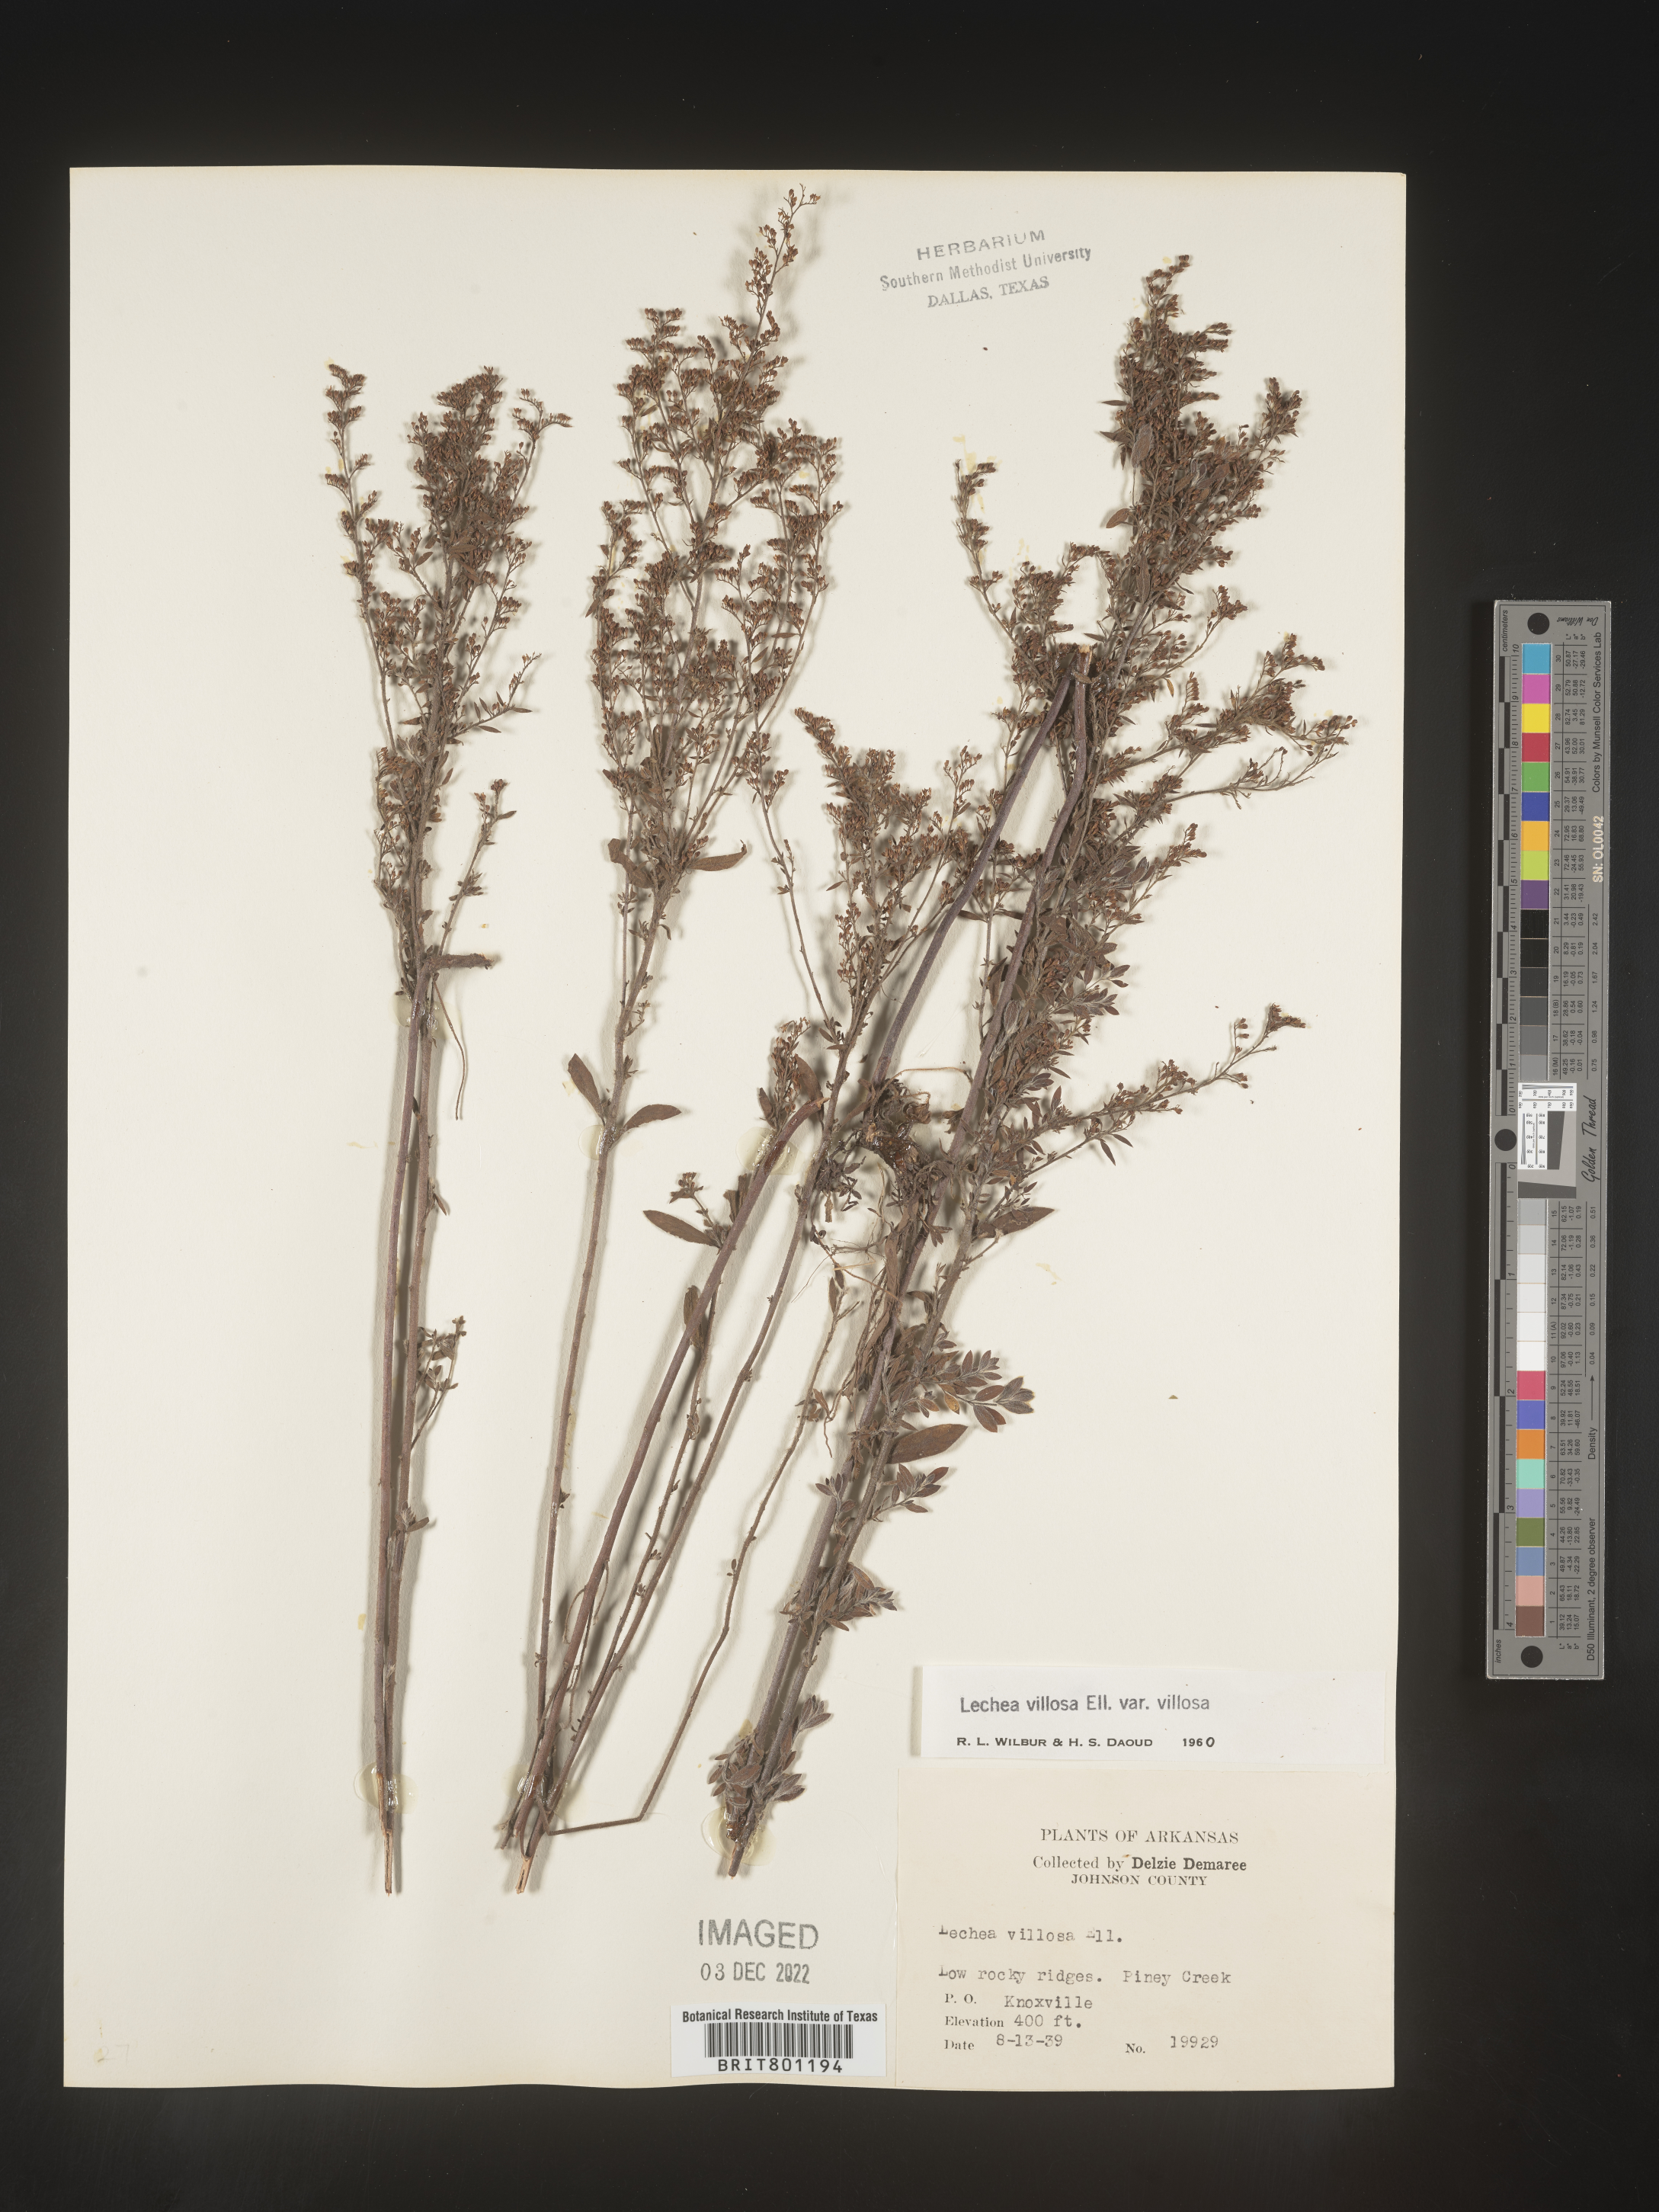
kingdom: Plantae
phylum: Tracheophyta
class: Magnoliopsida
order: Malvales
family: Cistaceae
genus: Lechea
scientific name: Lechea mucronata
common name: Hairy pinweed
